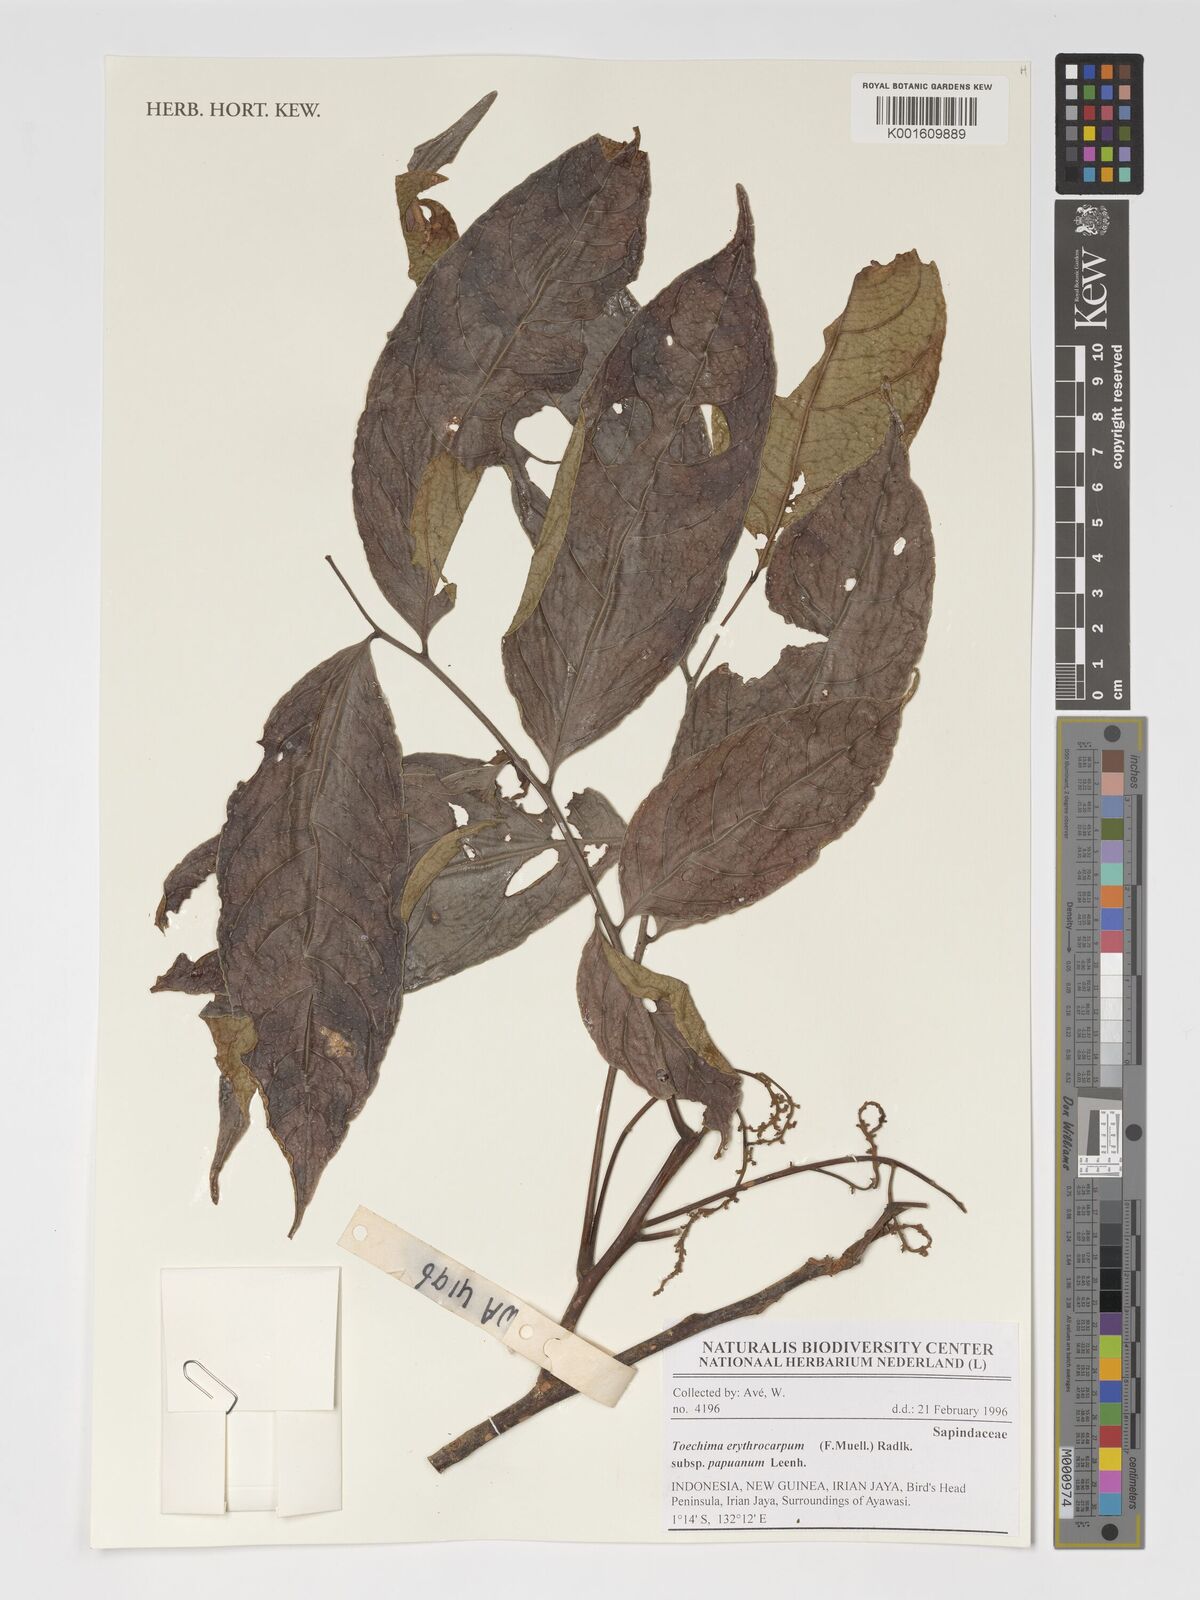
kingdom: Plantae
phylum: Tracheophyta
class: Magnoliopsida
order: Sapindales
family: Sapindaceae
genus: Toechima
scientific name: Toechima erythrocarpum
